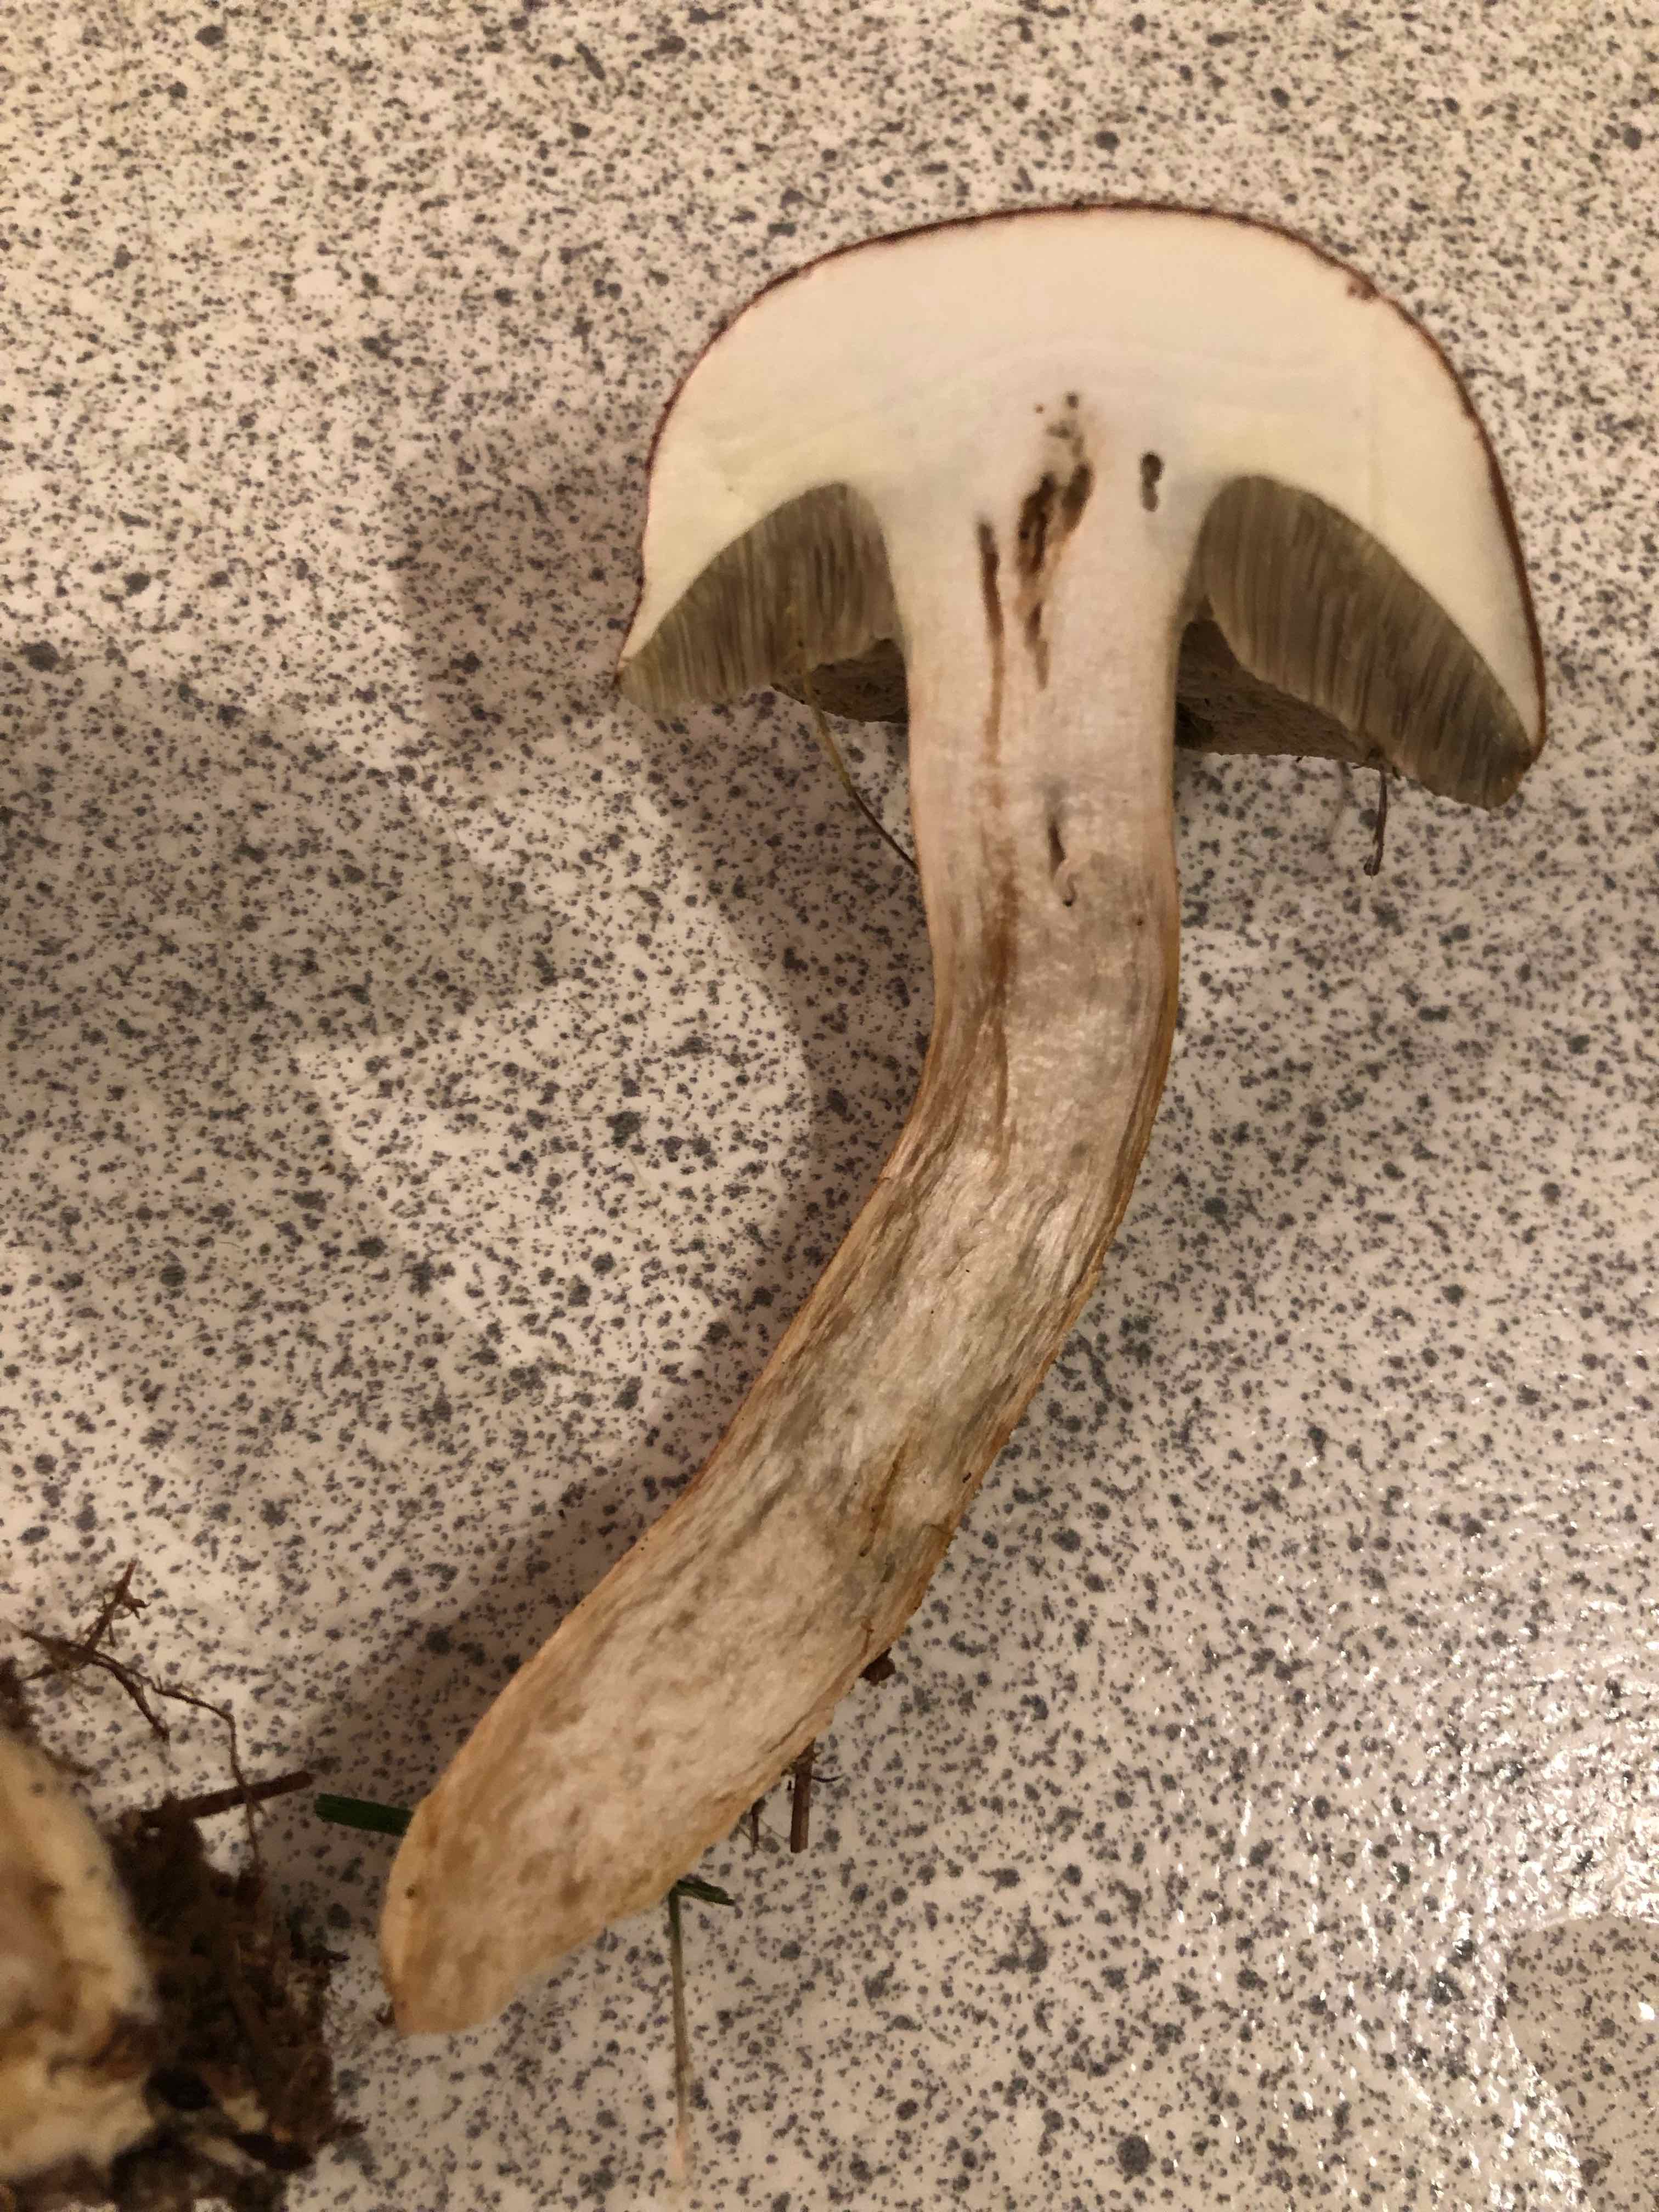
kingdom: Fungi
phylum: Basidiomycota
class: Agaricomycetes
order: Boletales
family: Boletaceae
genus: Imleria
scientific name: Imleria badia
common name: brunstokket rørhat
